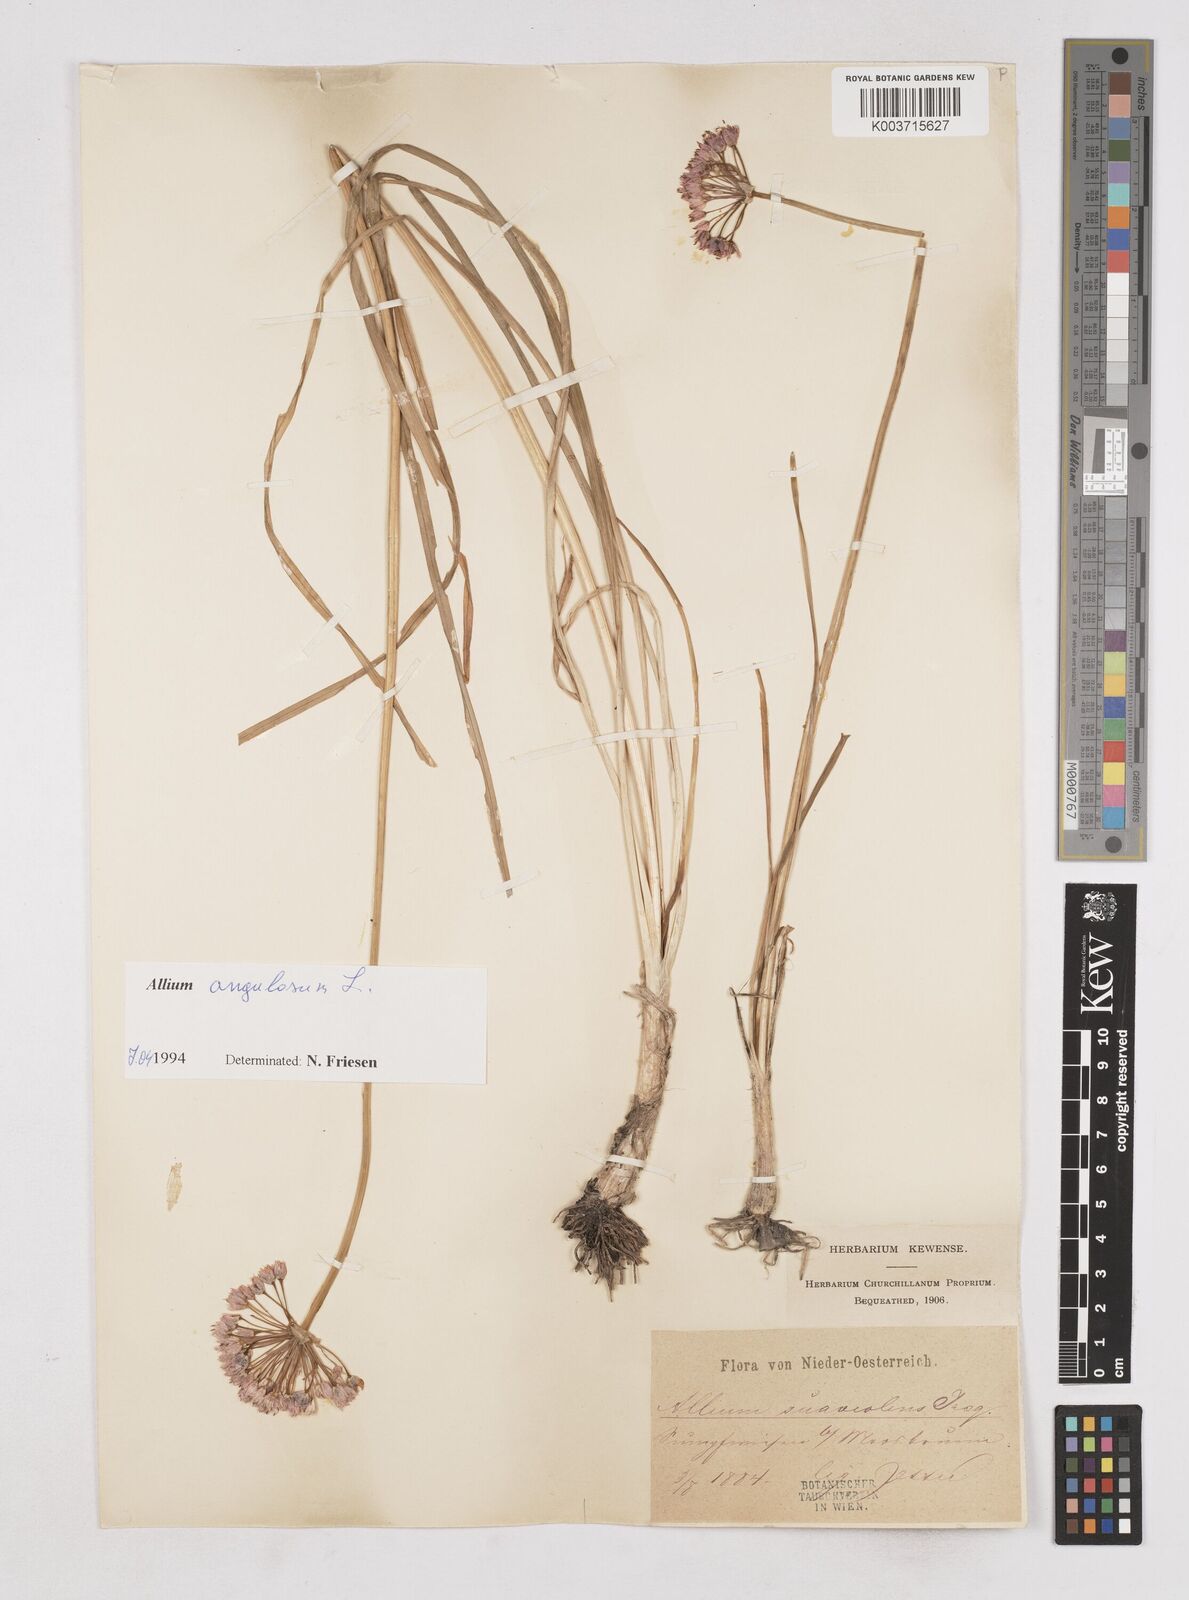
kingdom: Plantae
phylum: Tracheophyta
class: Liliopsida
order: Asparagales
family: Amaryllidaceae
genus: Allium
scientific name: Allium angulosum
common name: Mouse garlic
